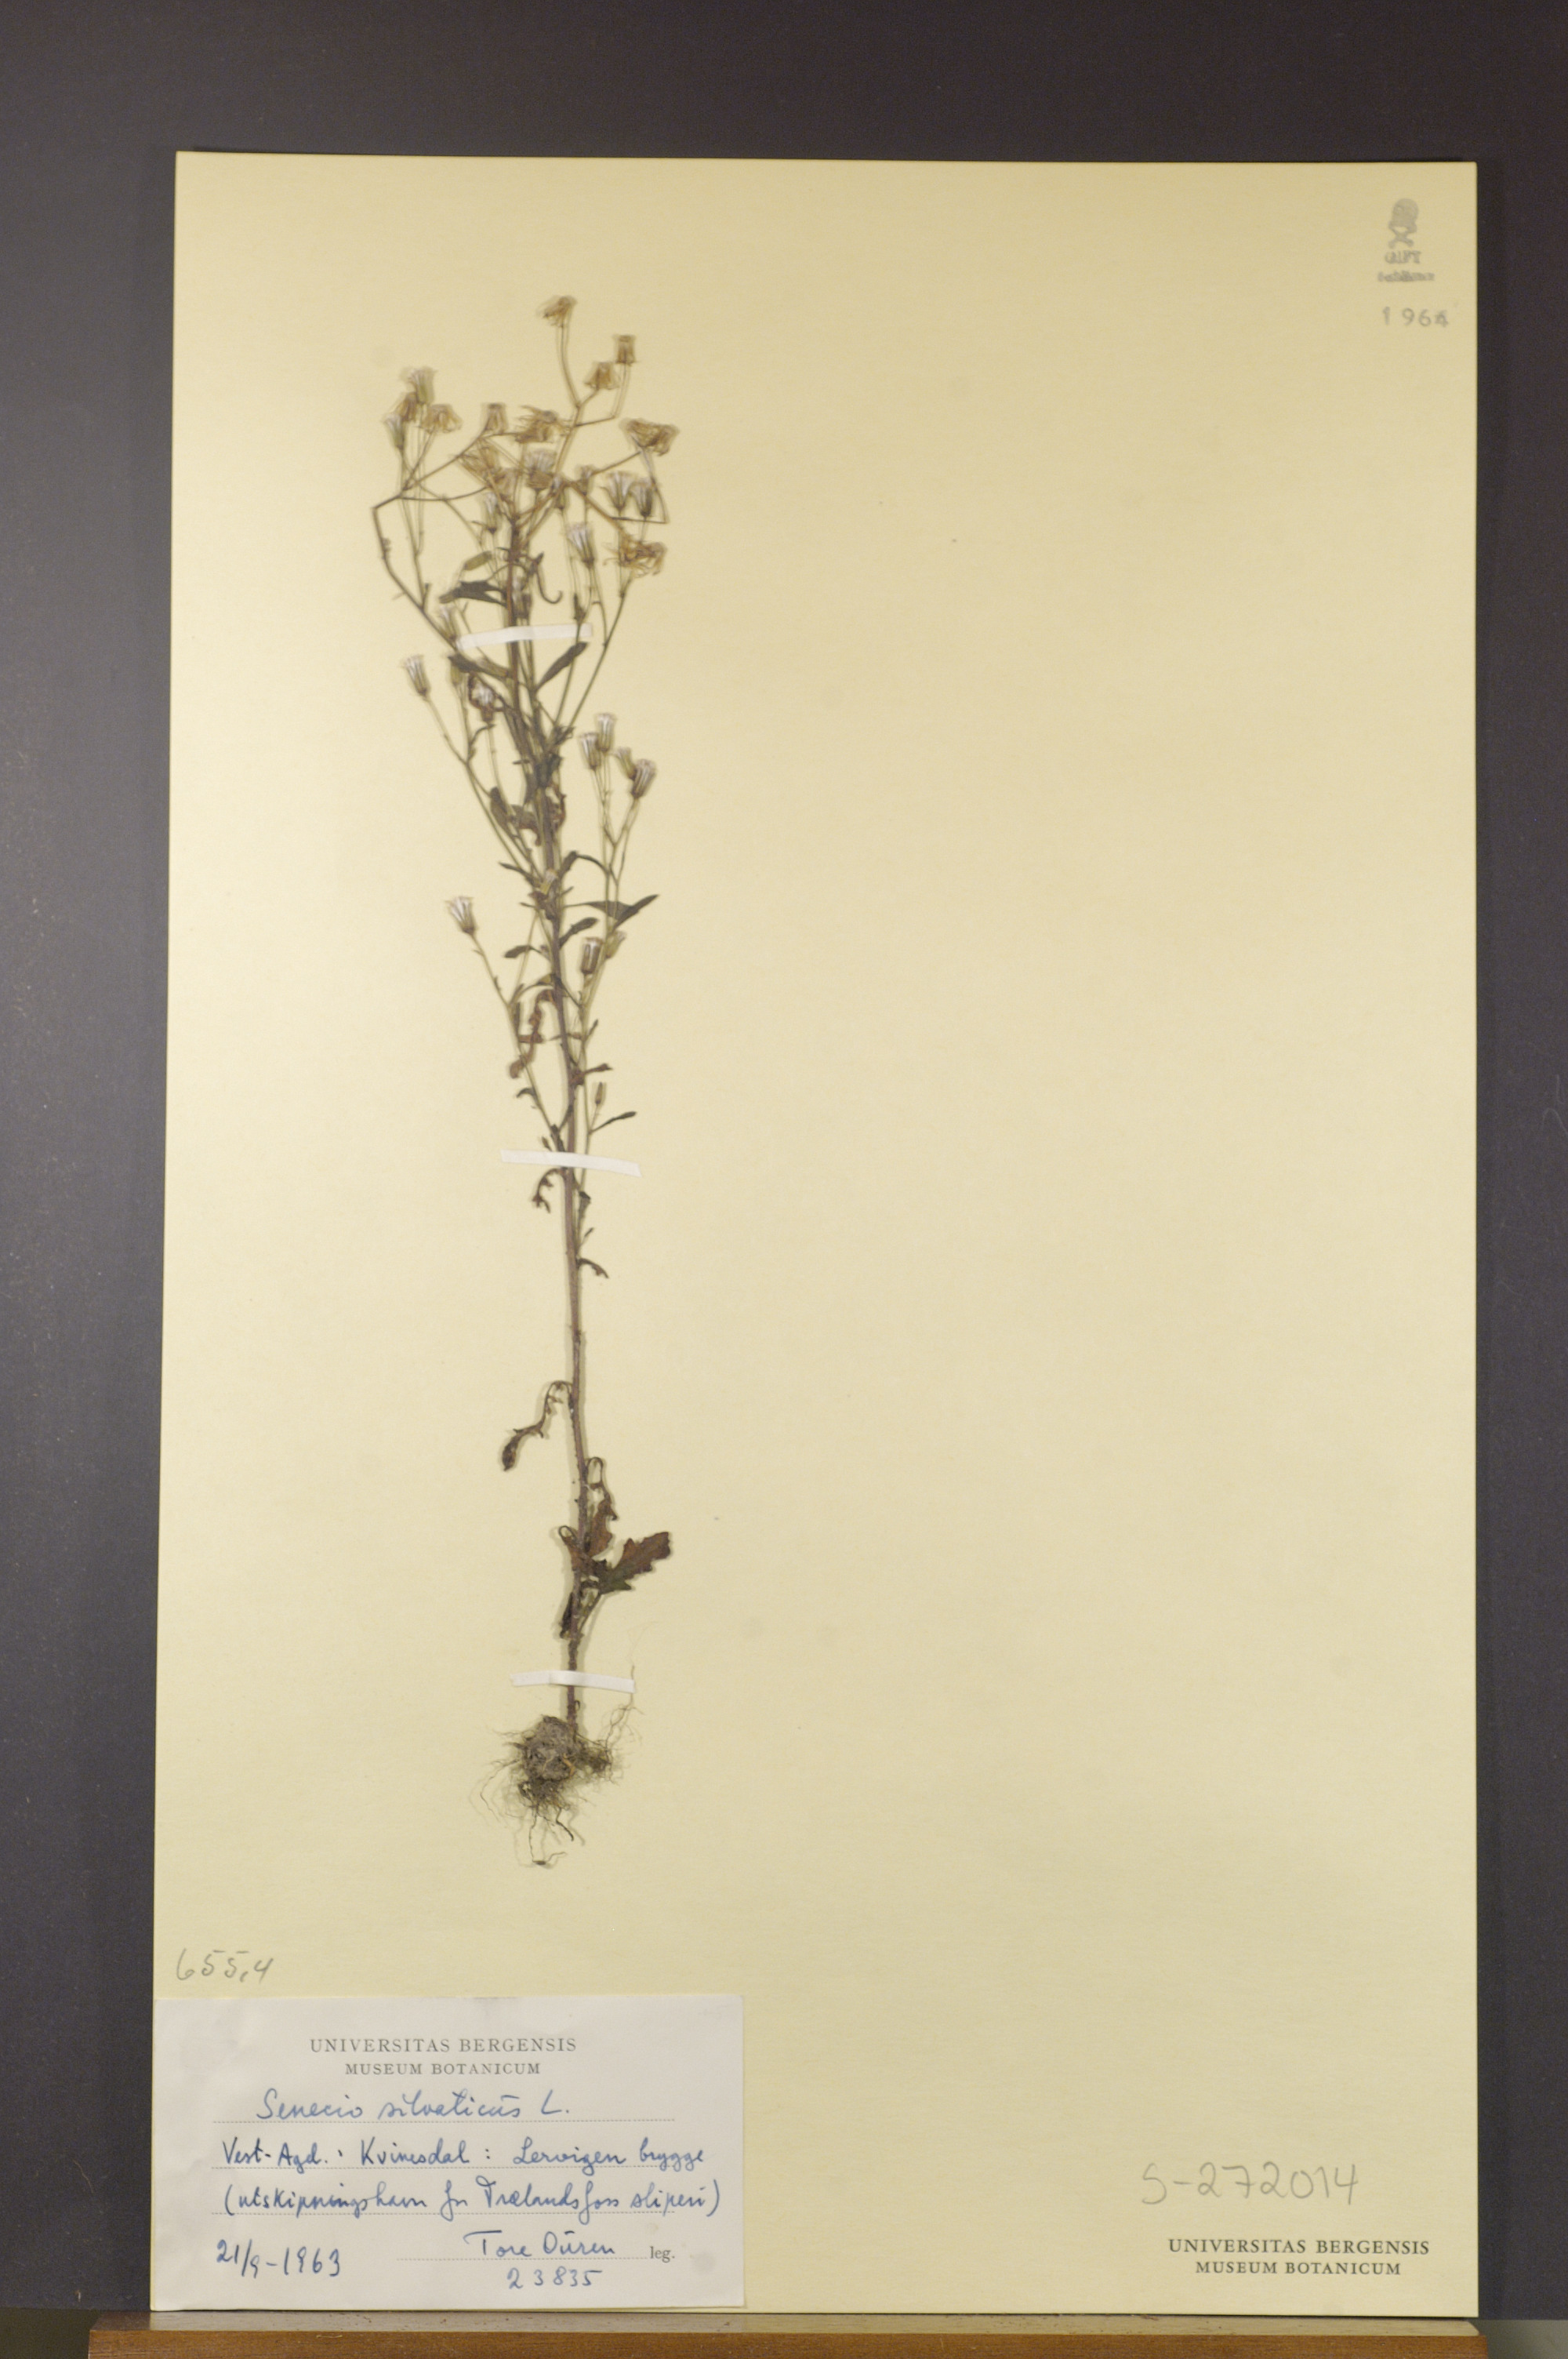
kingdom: Plantae
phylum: Tracheophyta
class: Magnoliopsida
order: Asterales
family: Asteraceae
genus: Senecio
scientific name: Senecio sylvaticus
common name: Woodland ragwort
